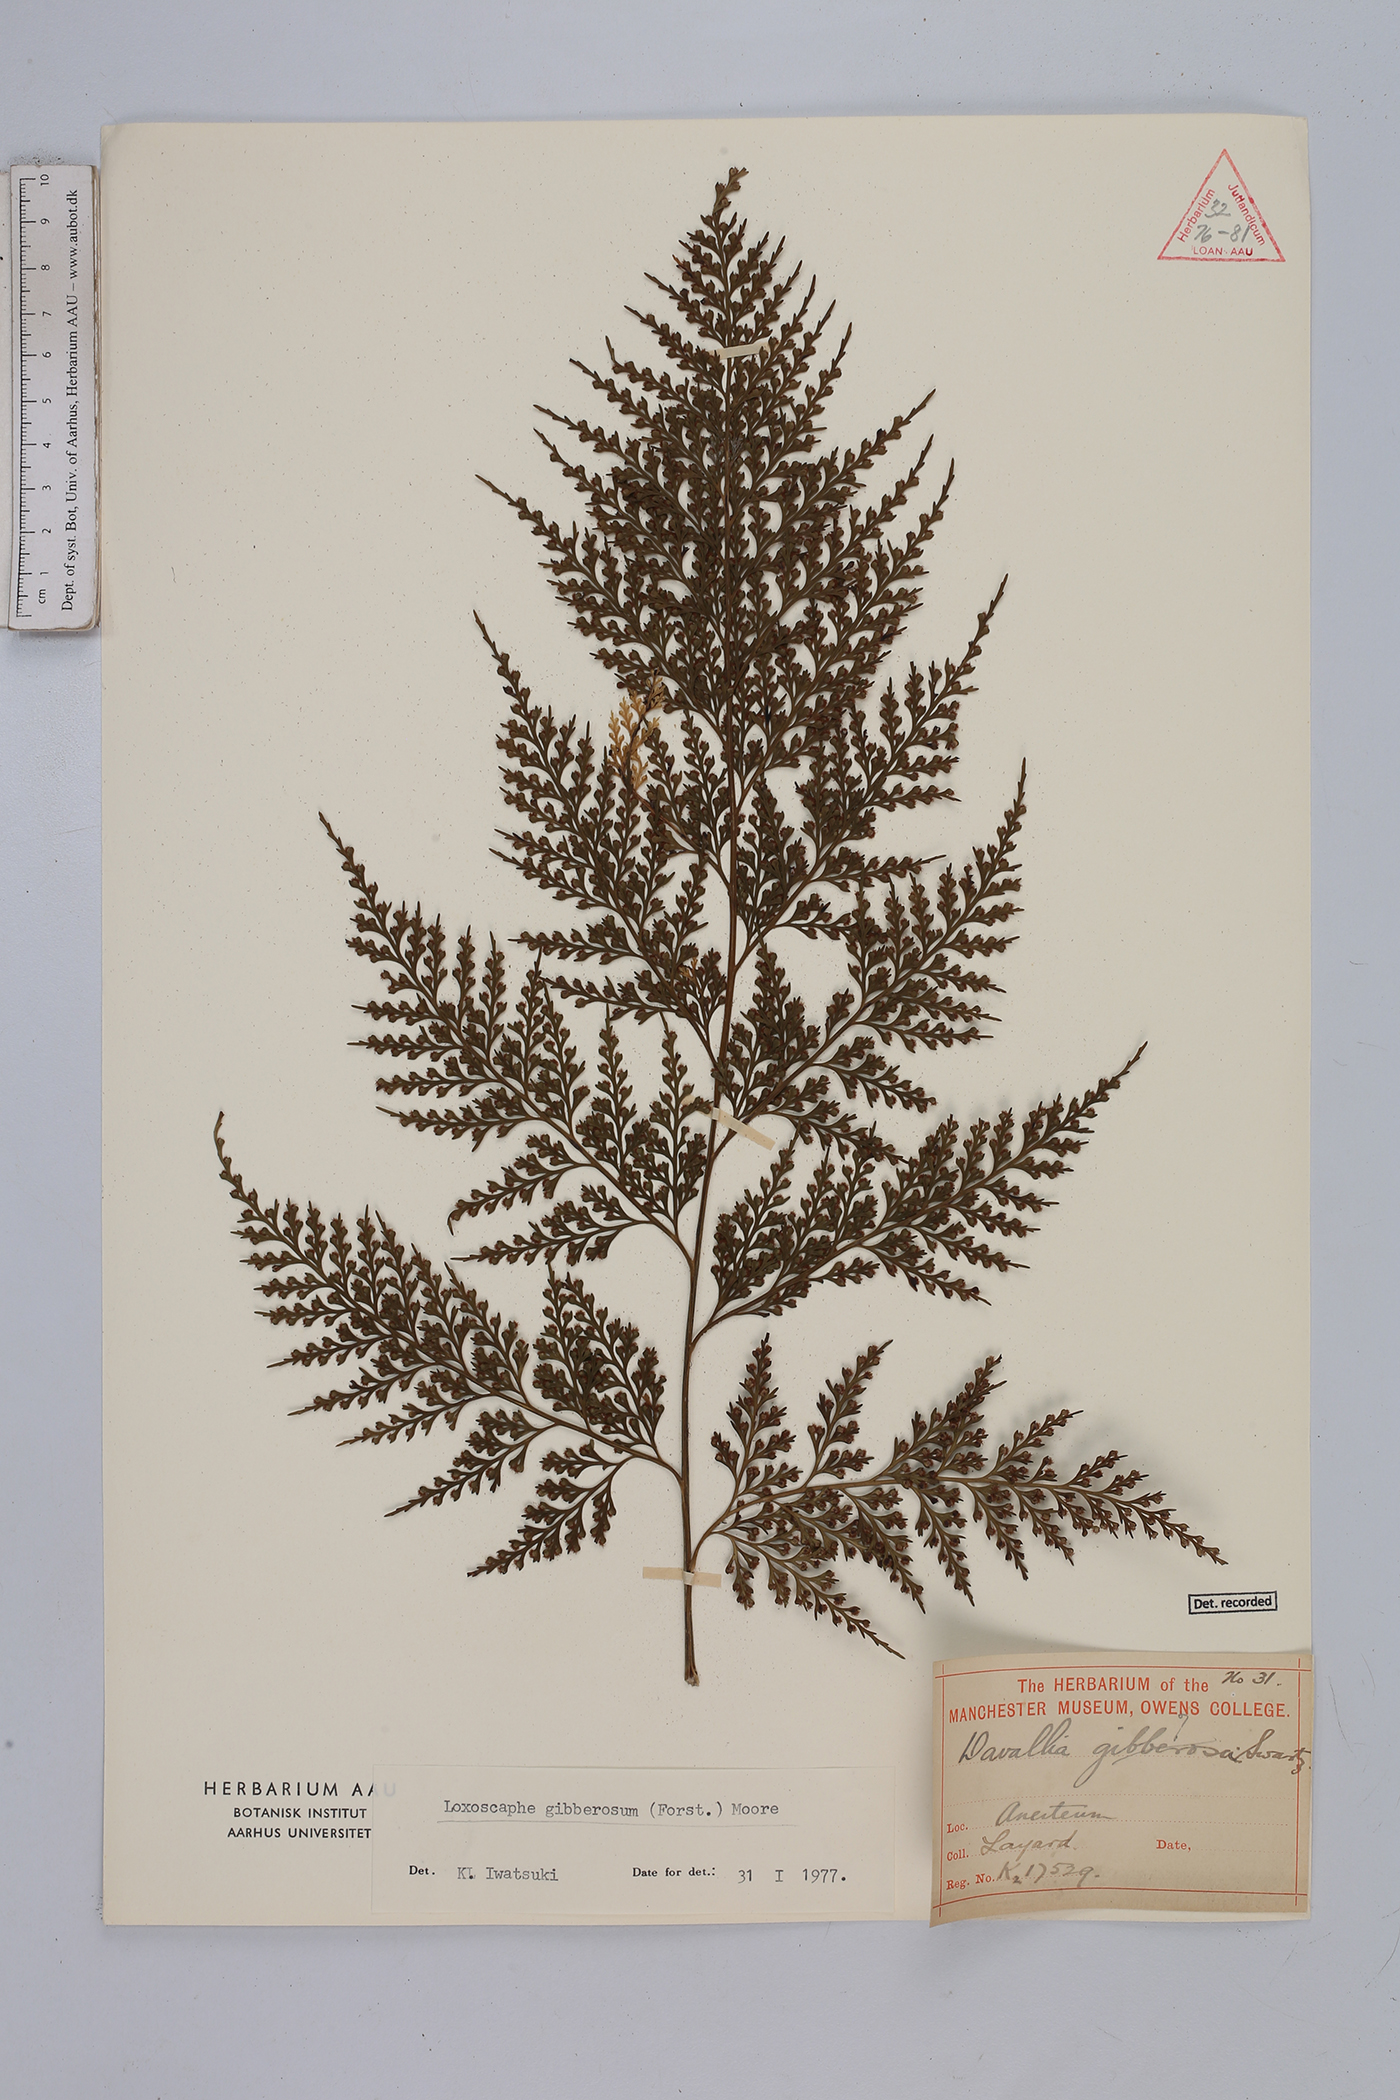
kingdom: Plantae
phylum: Tracheophyta
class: Polypodiopsida
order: Polypodiales
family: Aspleniaceae
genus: Asplenium
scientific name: Asplenium gibberosum
